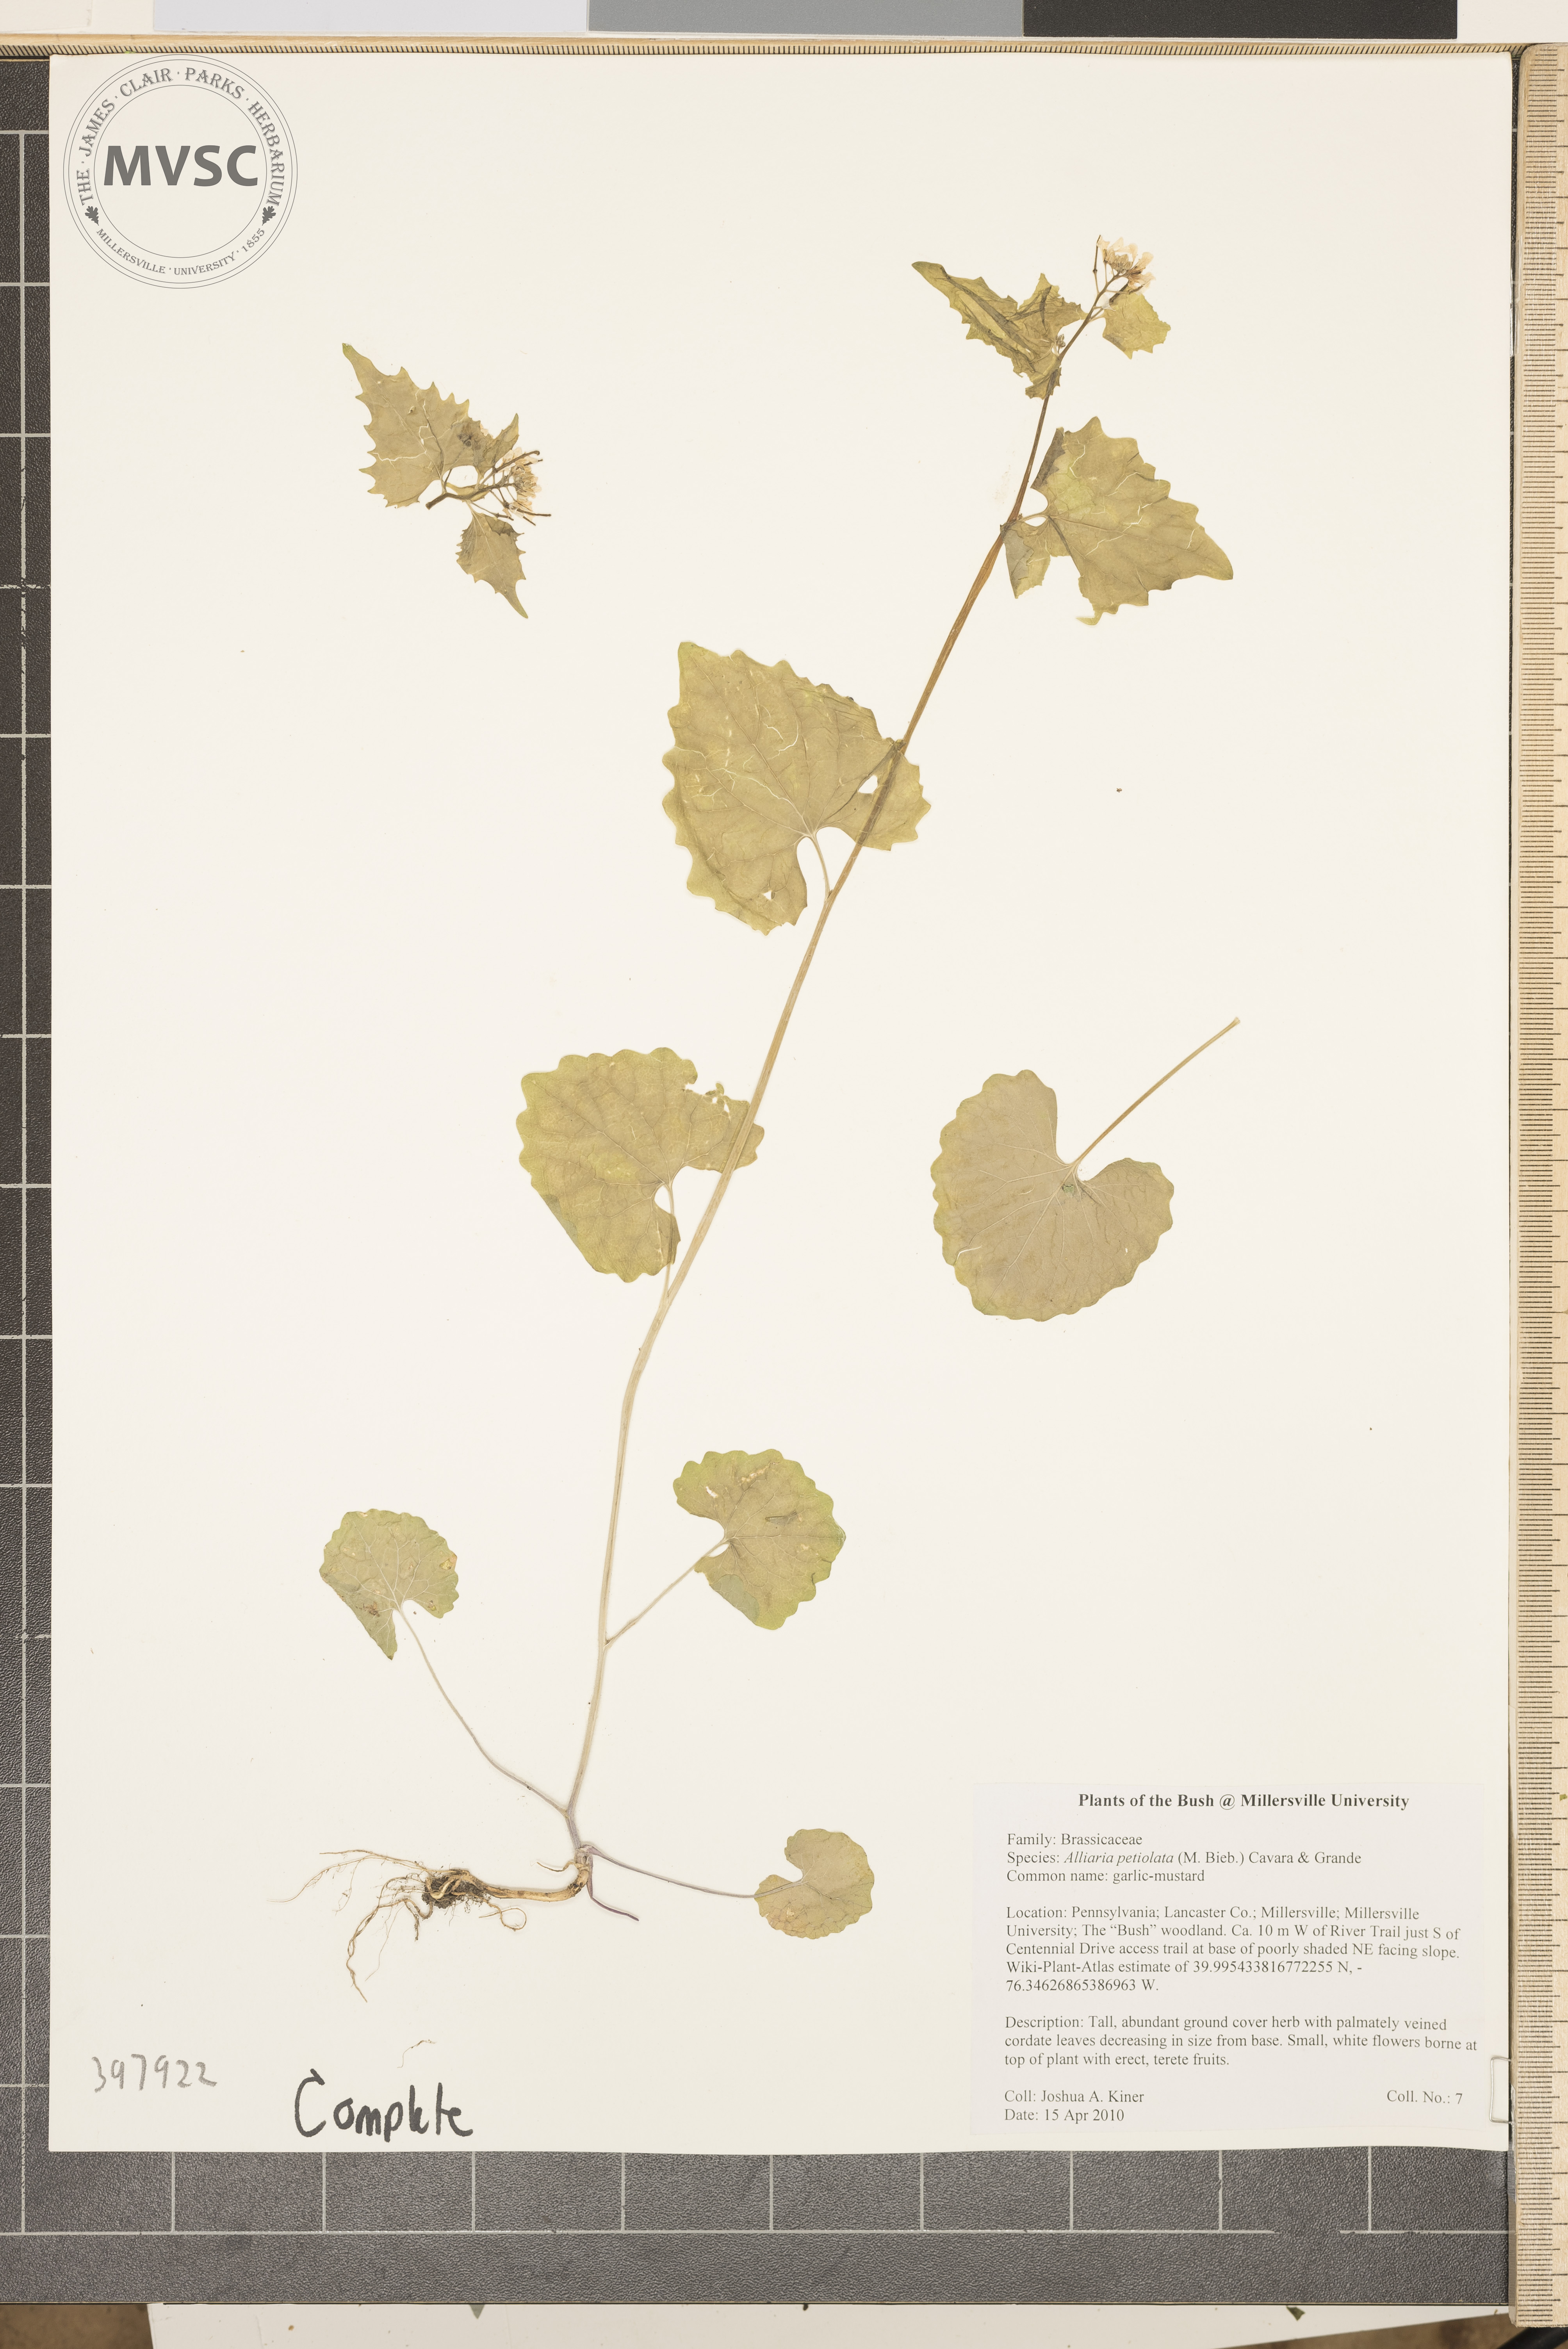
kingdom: Plantae
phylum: Tracheophyta
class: Magnoliopsida
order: Brassicales
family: Brassicaceae
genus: Alliaria
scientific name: Alliaria petiolata
